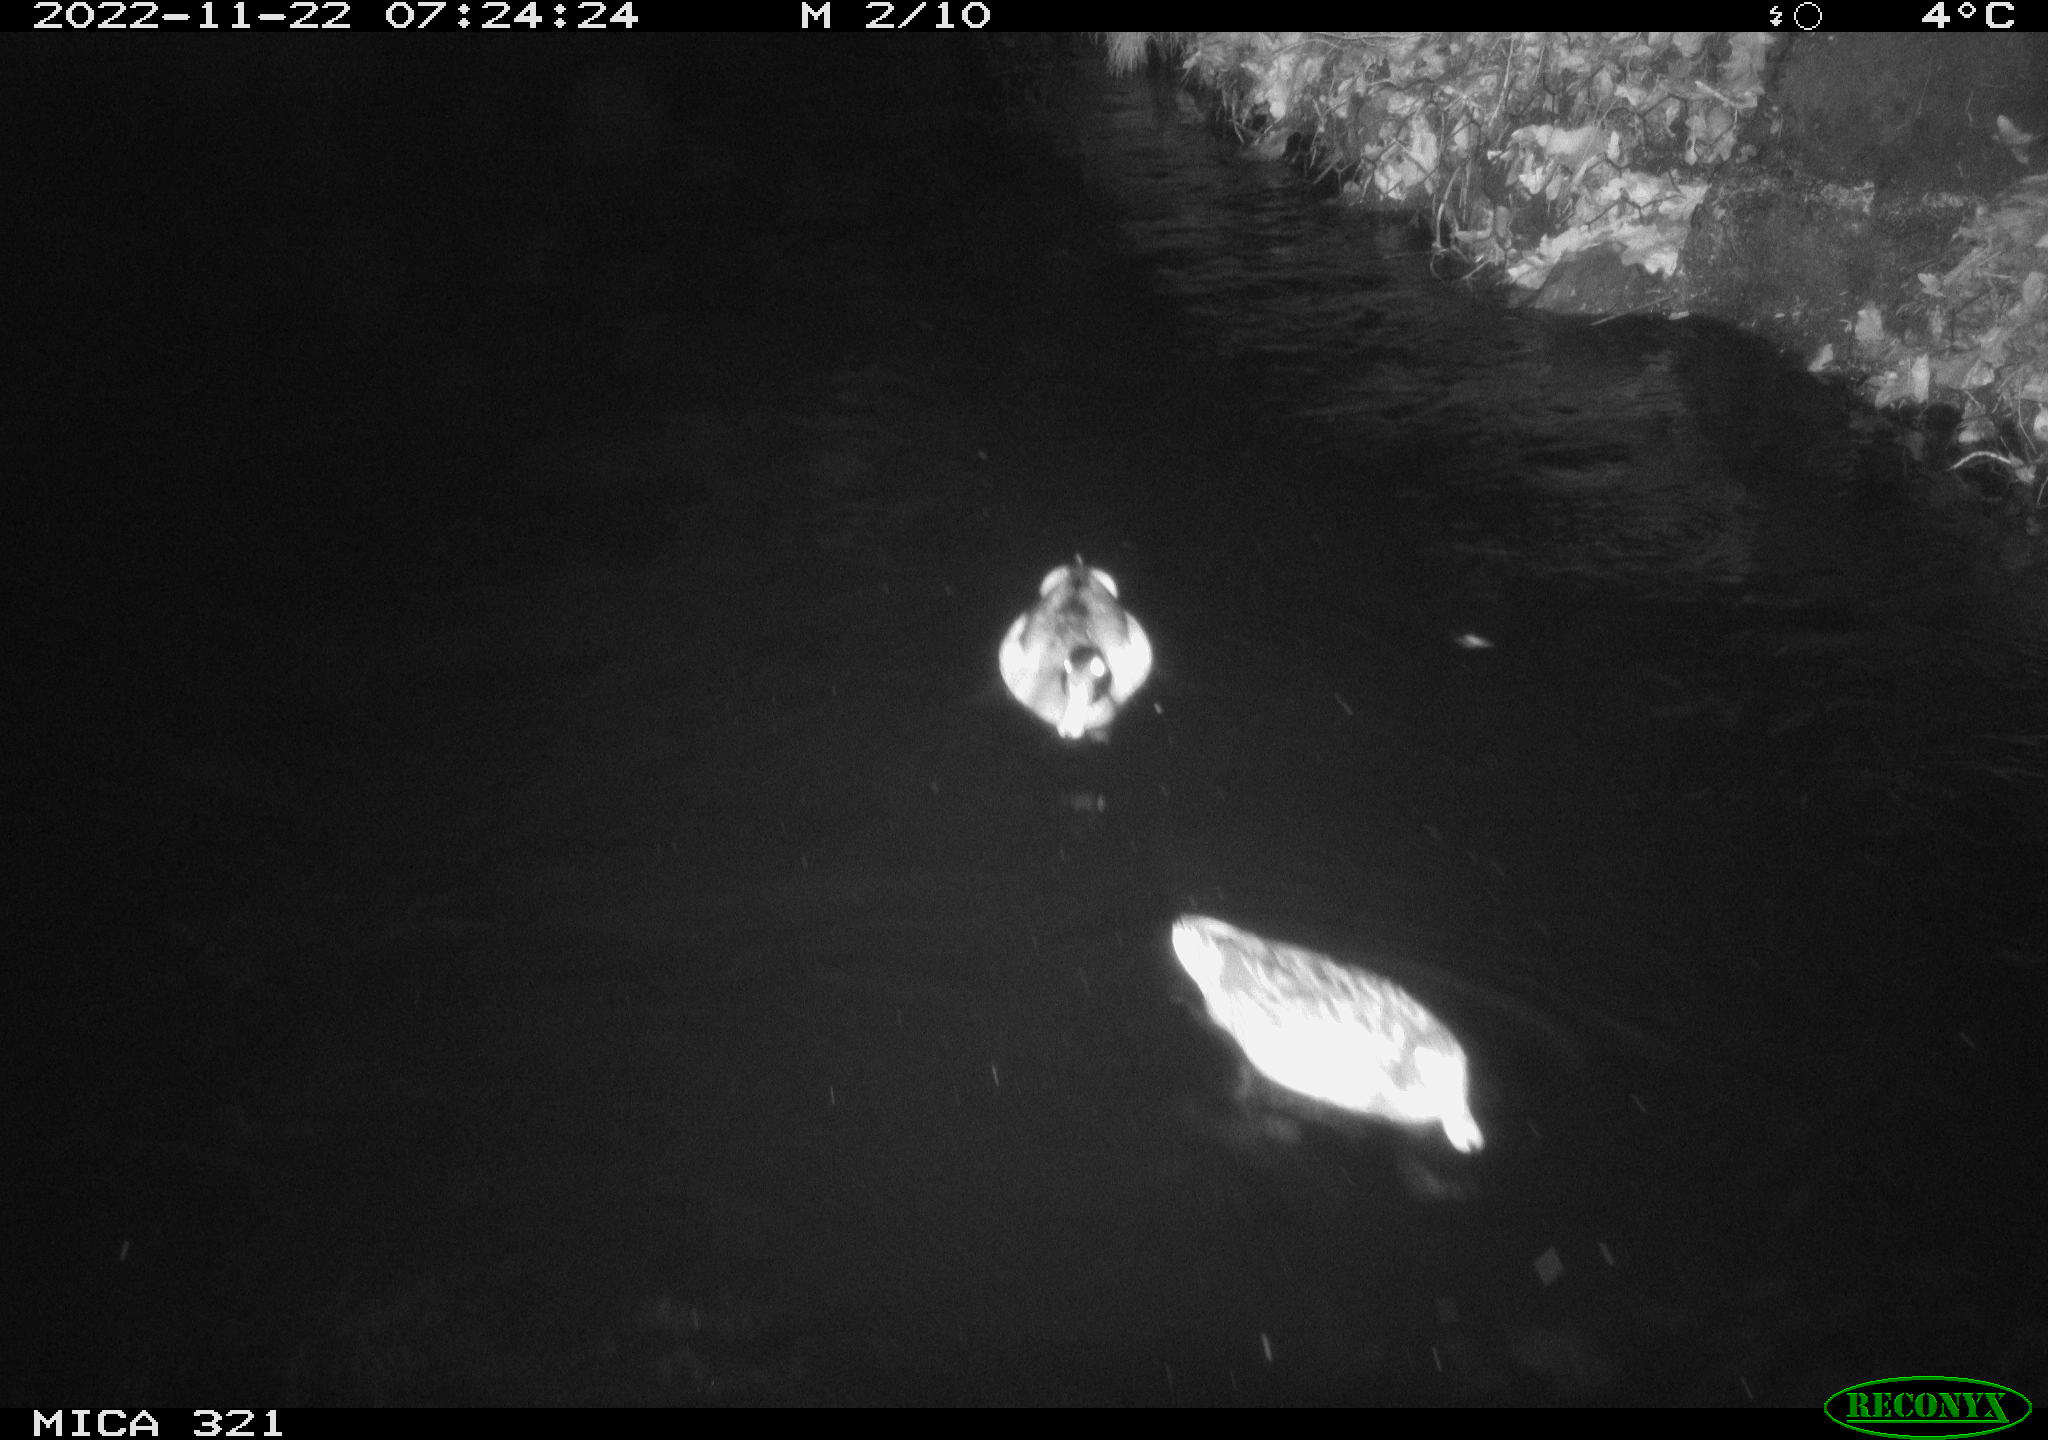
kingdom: Animalia
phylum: Chordata
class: Aves
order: Anseriformes
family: Anatidae
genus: Anas
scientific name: Anas
